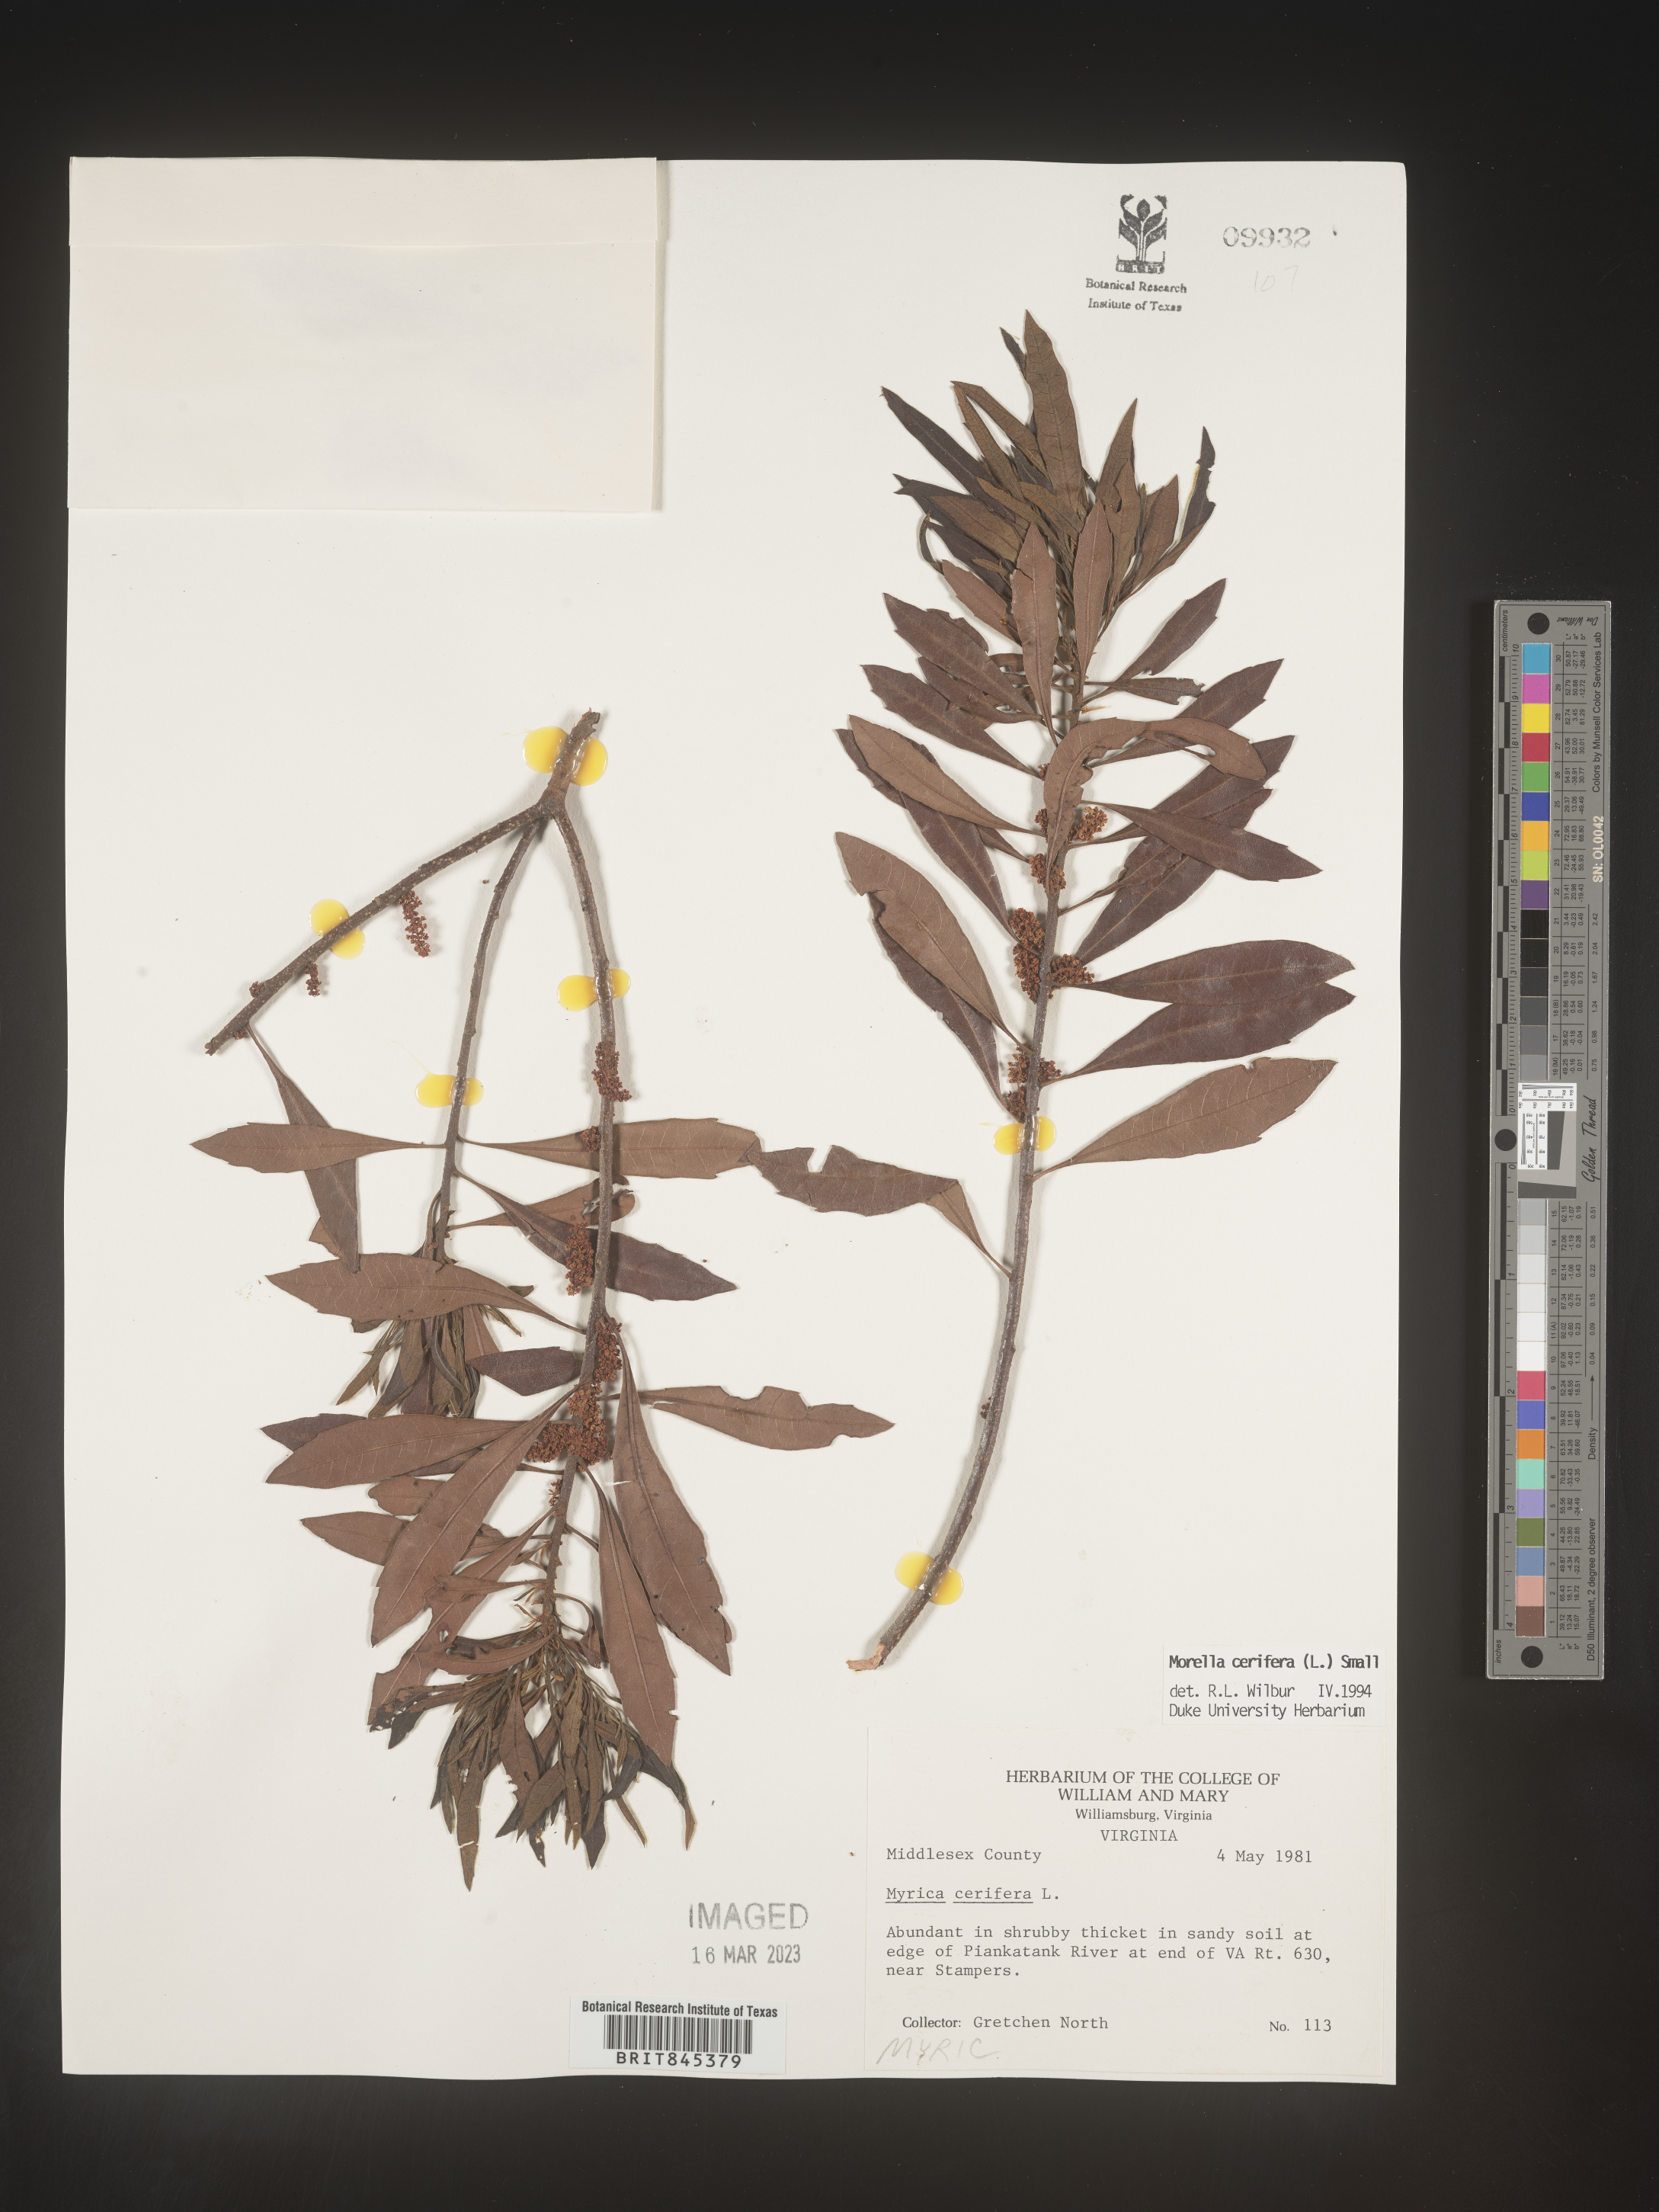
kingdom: Plantae
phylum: Tracheophyta
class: Magnoliopsida
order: Fagales
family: Myricaceae
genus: Morella
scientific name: Morella cerifera
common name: Wax myrtle
